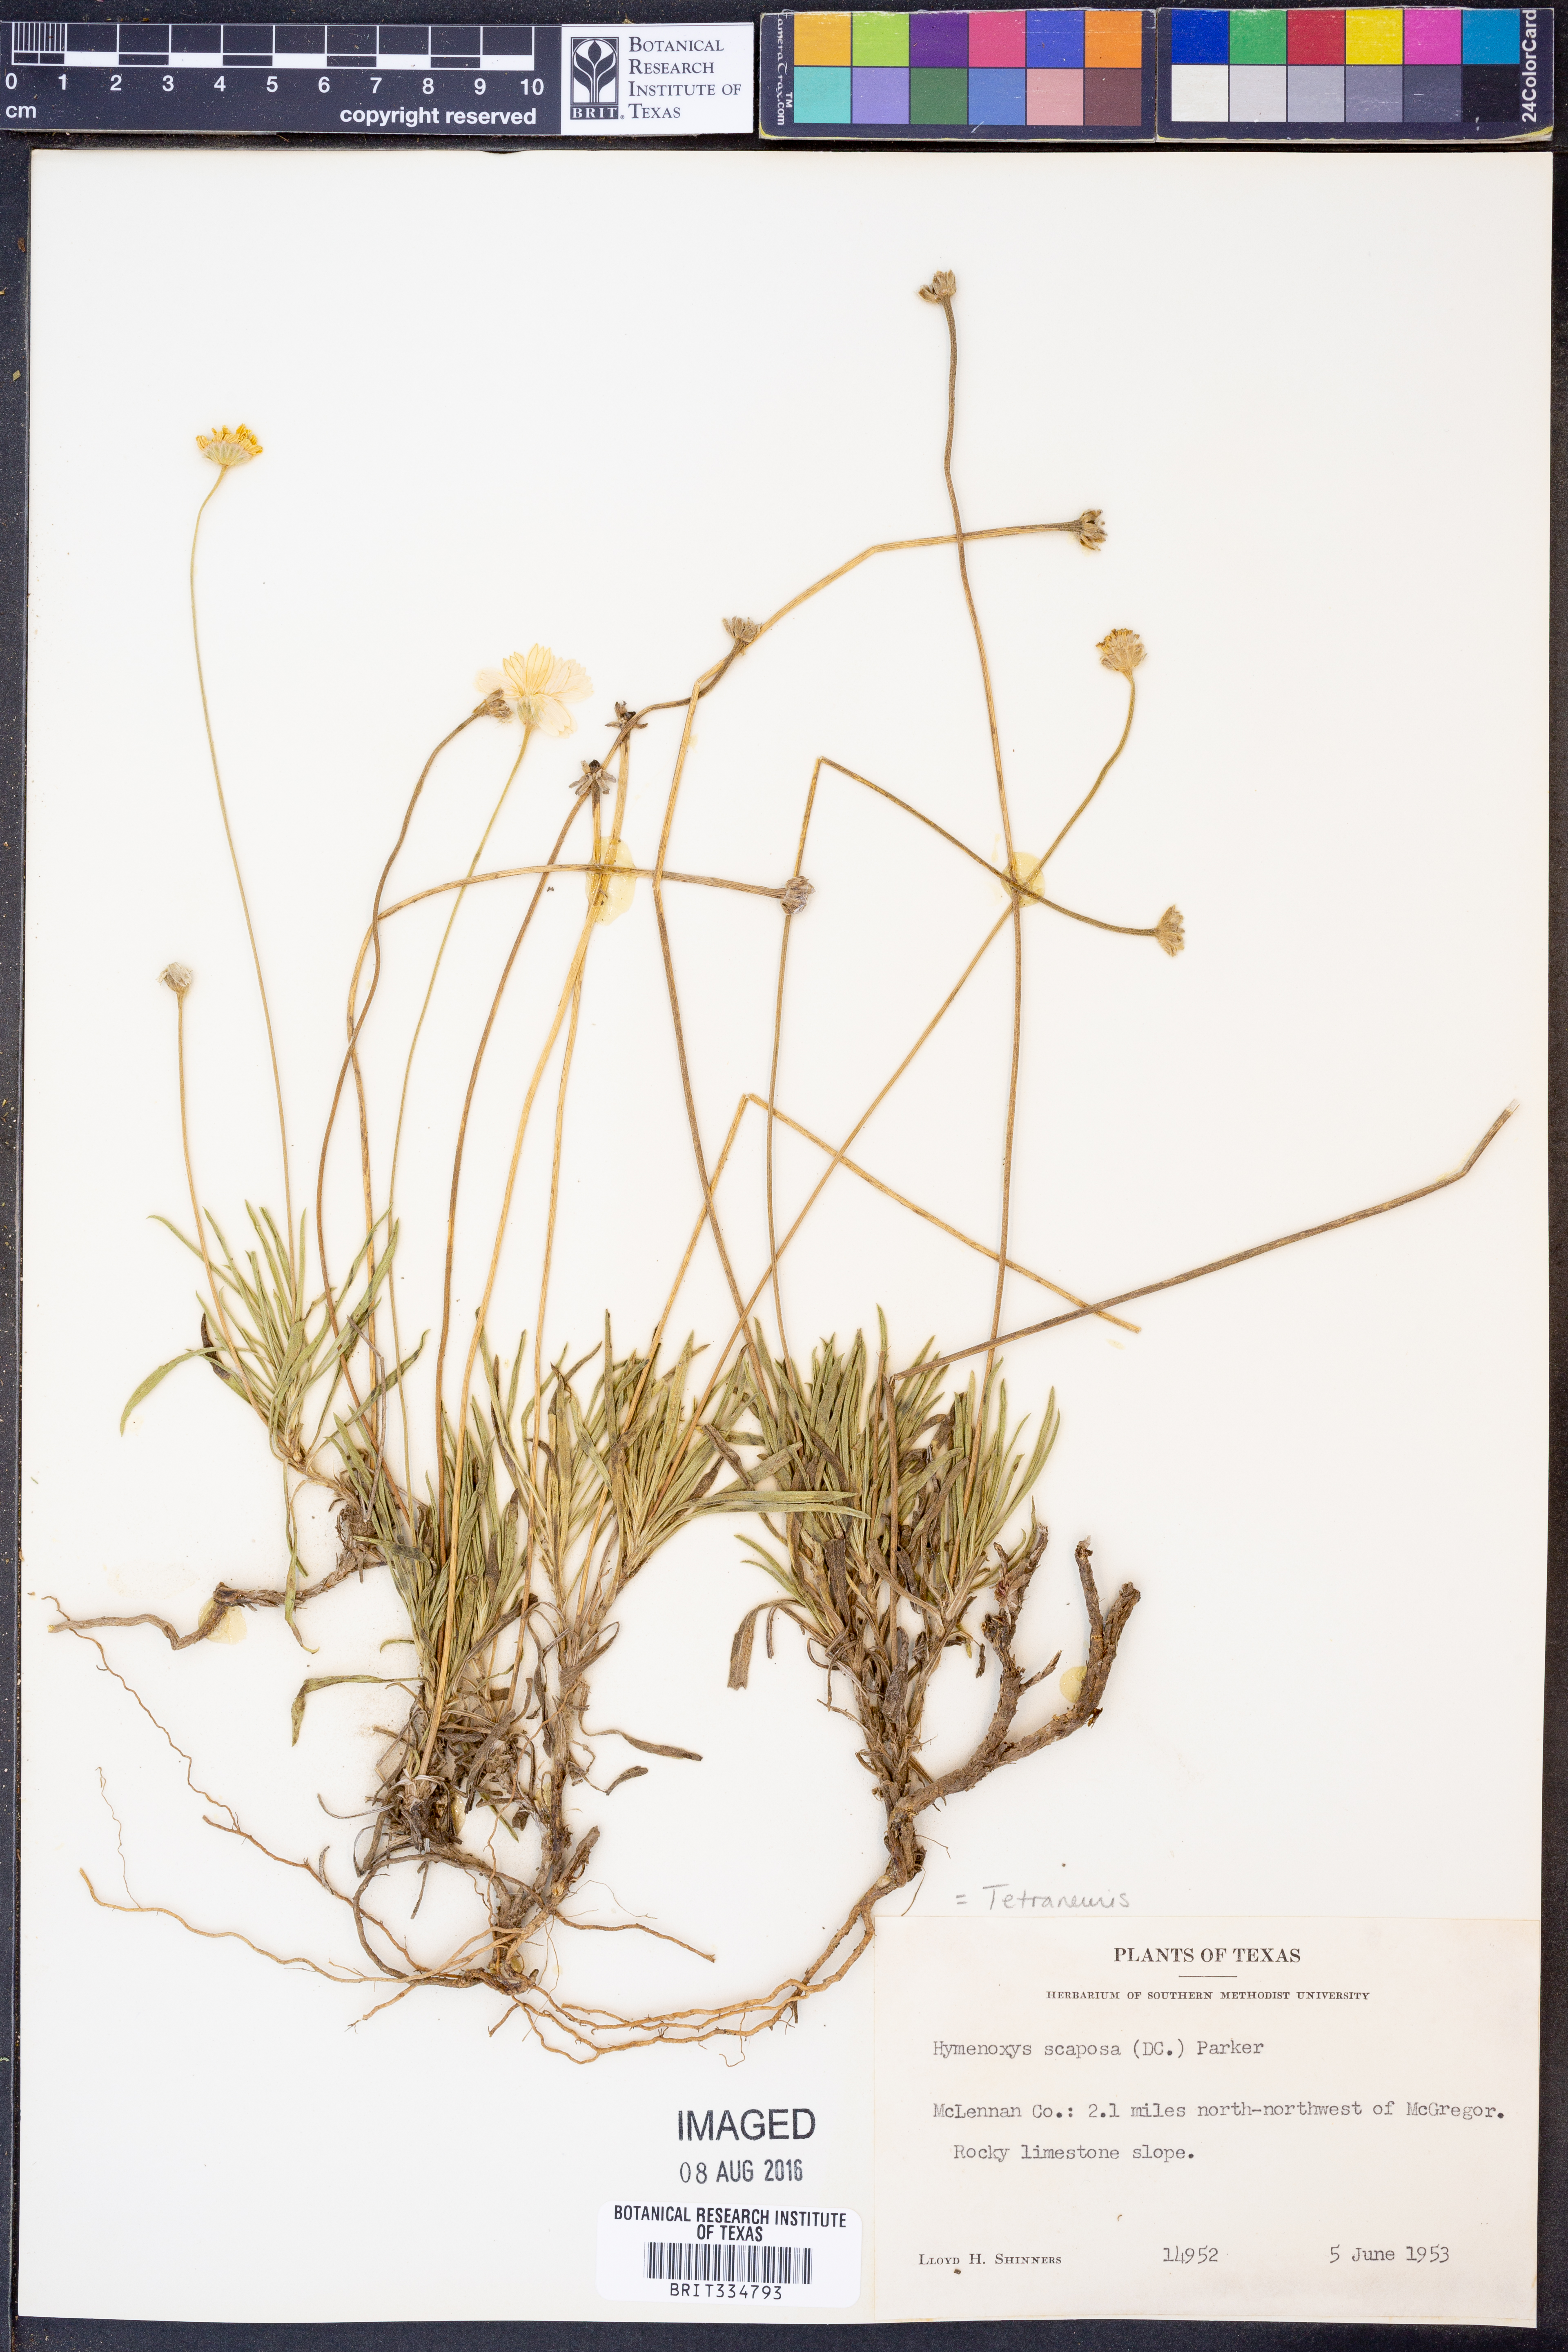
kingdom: Plantae
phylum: Tracheophyta
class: Magnoliopsida
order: Asterales
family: Asteraceae
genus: Tetraneuris
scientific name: Tetraneuris scaposa
